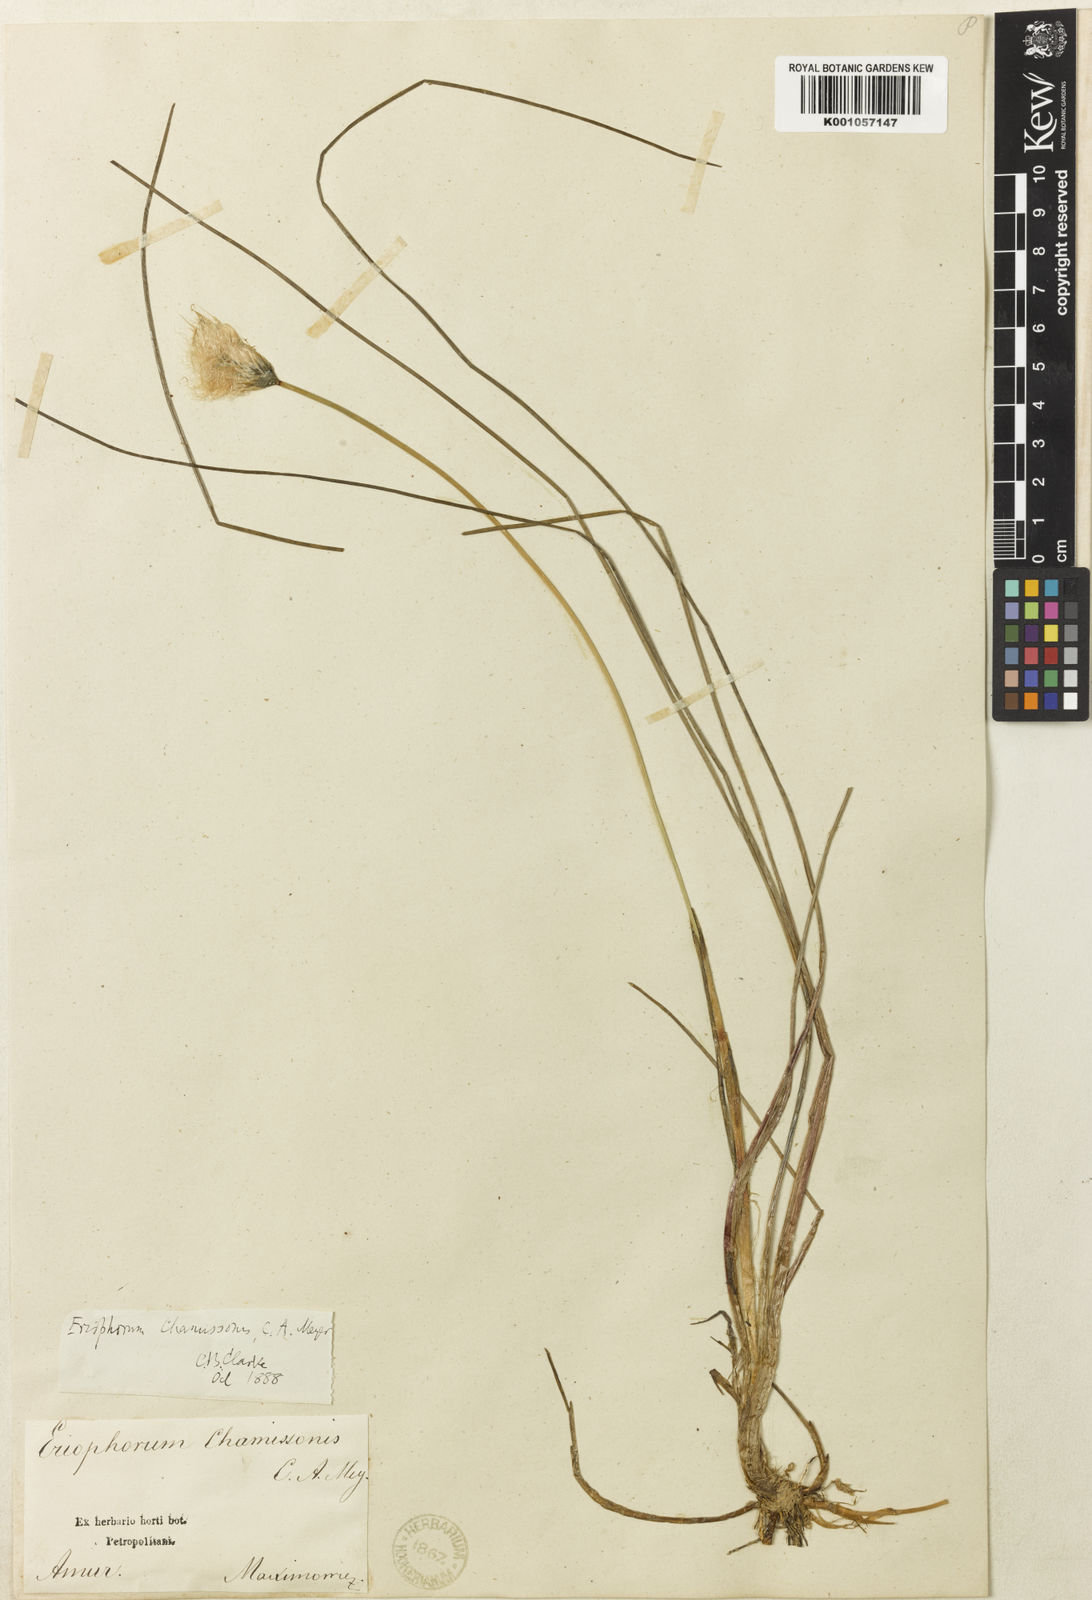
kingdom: Plantae
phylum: Tracheophyta
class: Liliopsida
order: Poales
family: Cyperaceae
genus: Eriophorum
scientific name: Eriophorum chamissonis
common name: Chamisso's cottongrass
